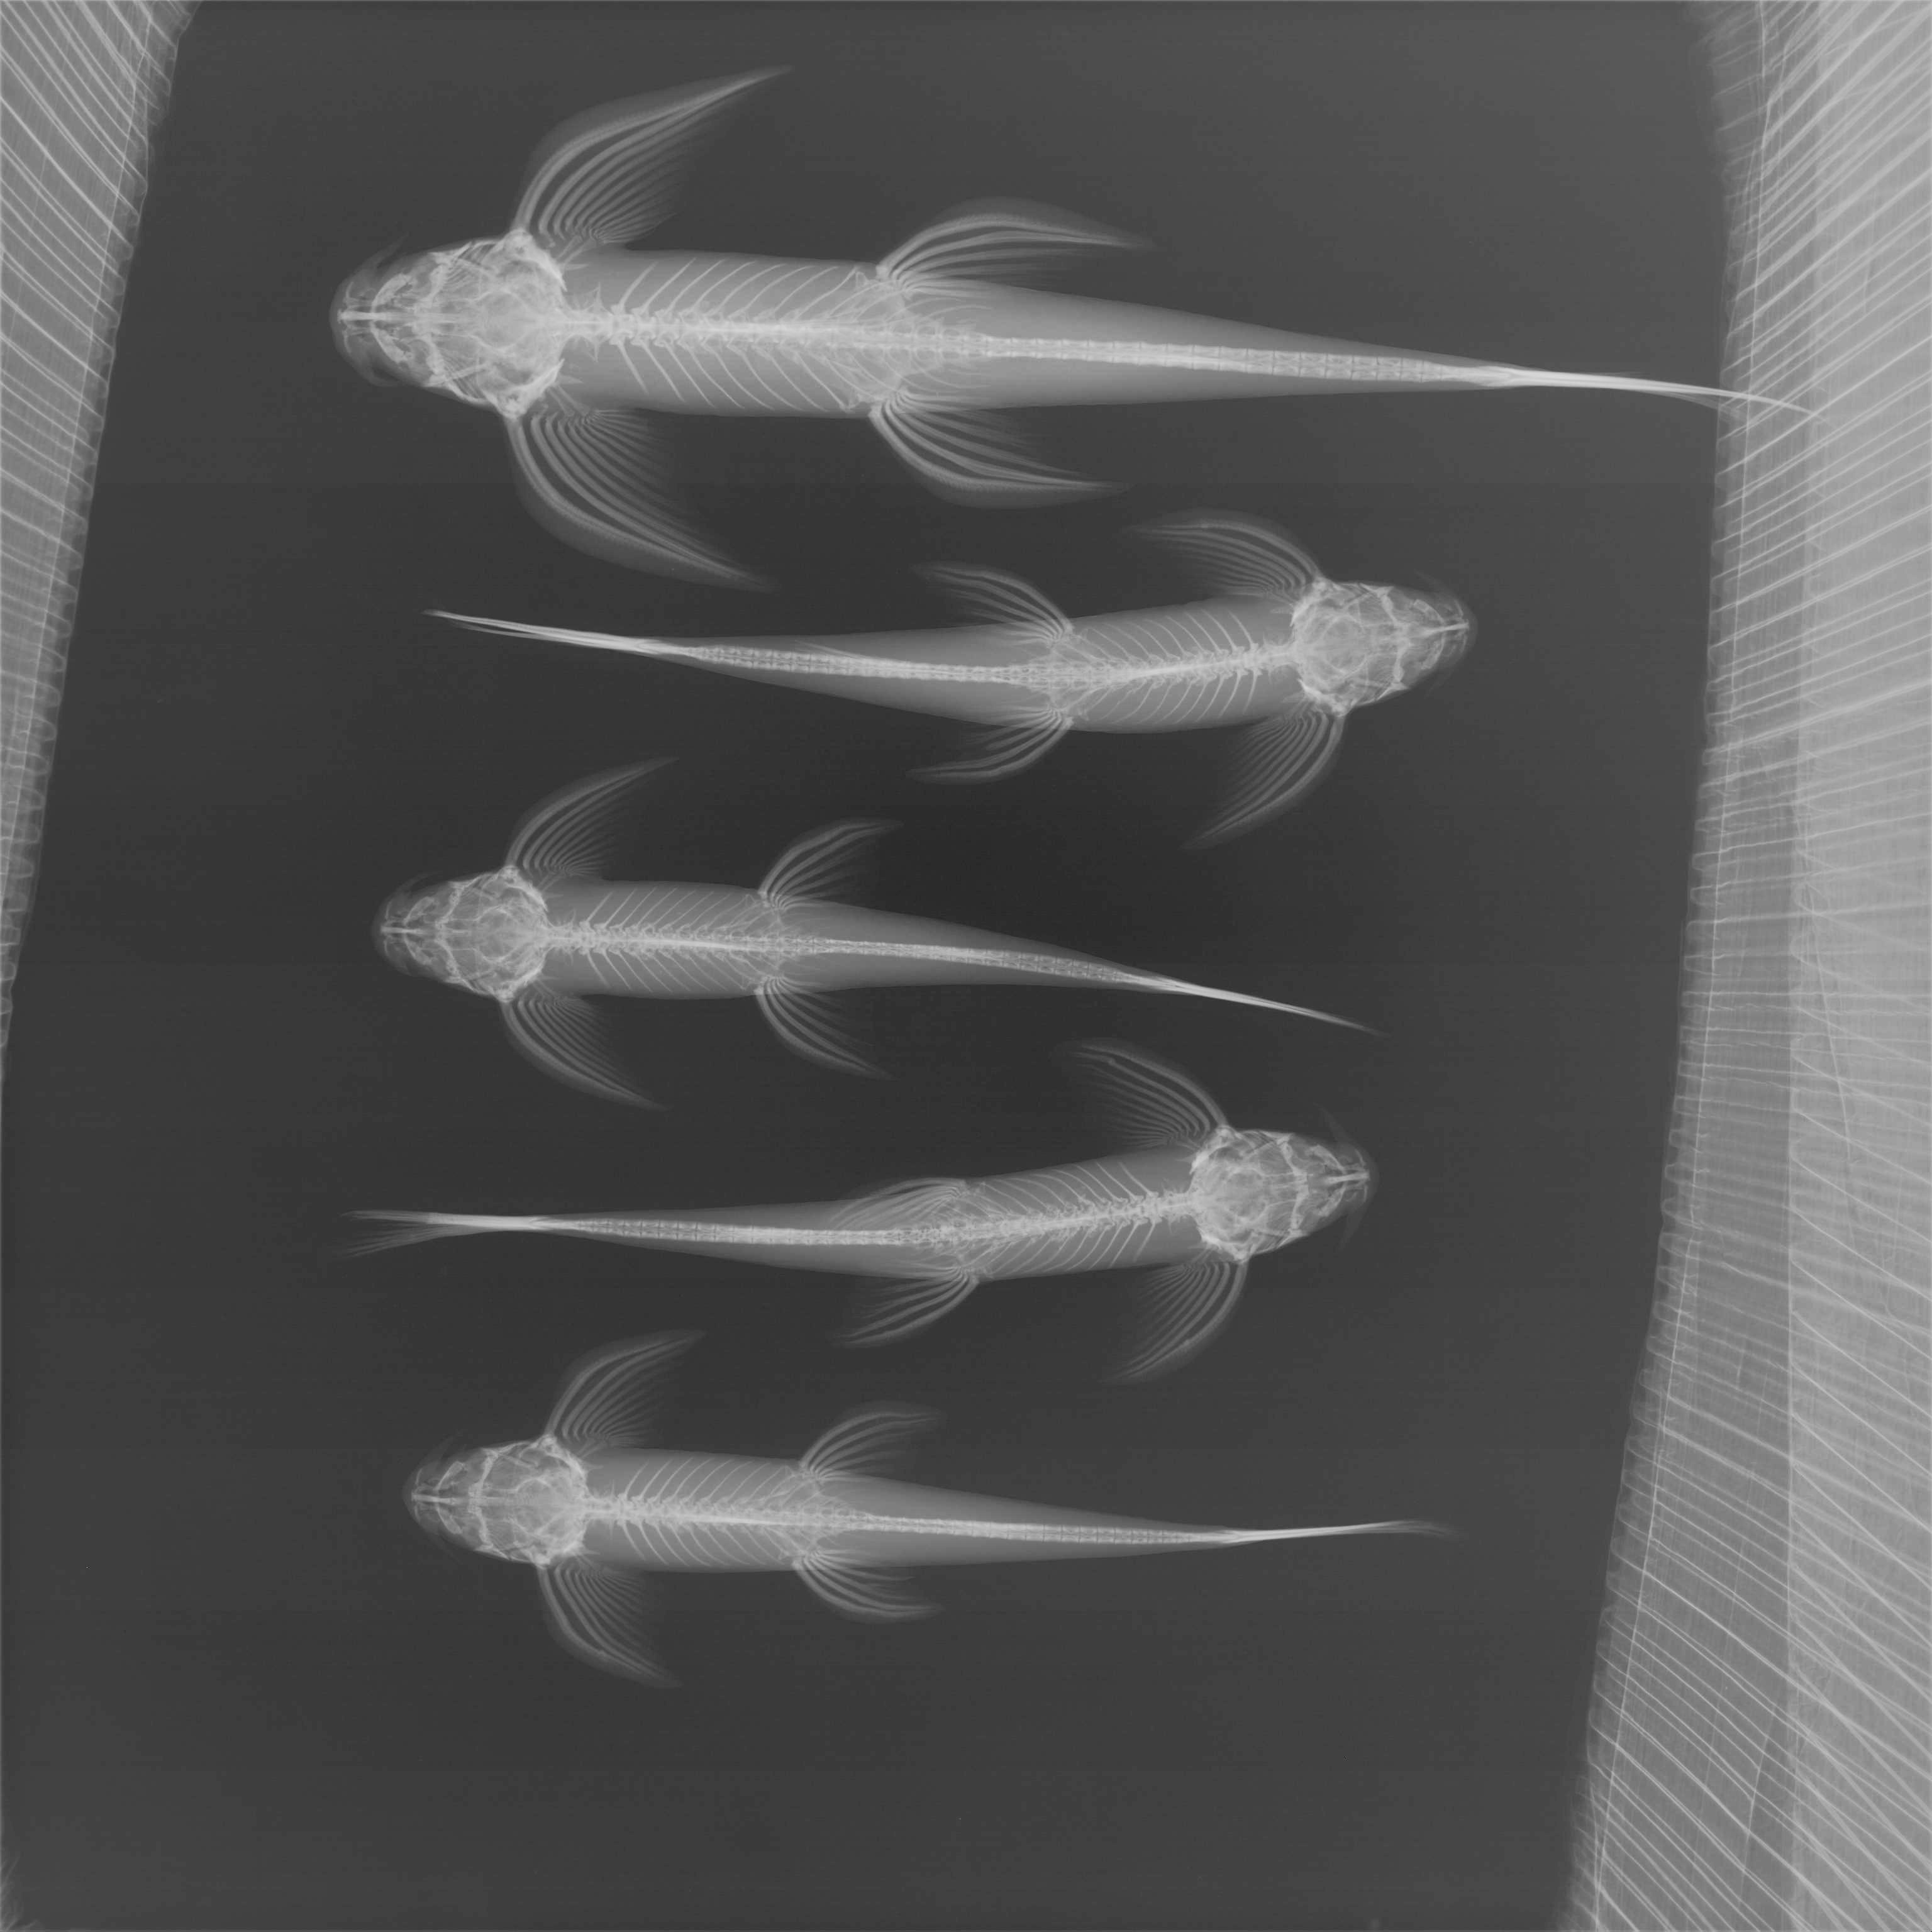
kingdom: Animalia
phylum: Chordata
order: Siluriformes
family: Amphiliidae
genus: Congoglanis
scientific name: Congoglanis alula
